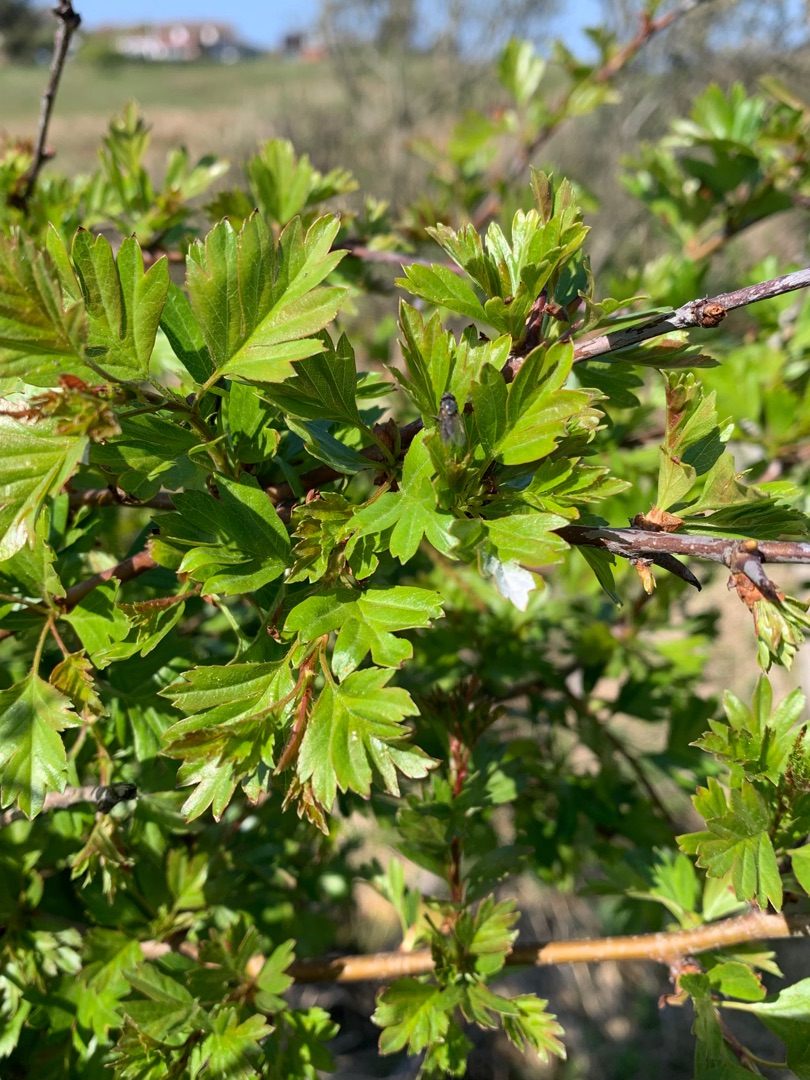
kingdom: Plantae
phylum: Tracheophyta
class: Magnoliopsida
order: Rosales
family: Rosaceae
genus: Crataegus
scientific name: Crataegus monogyna
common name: Engriflet hvidtjørn
